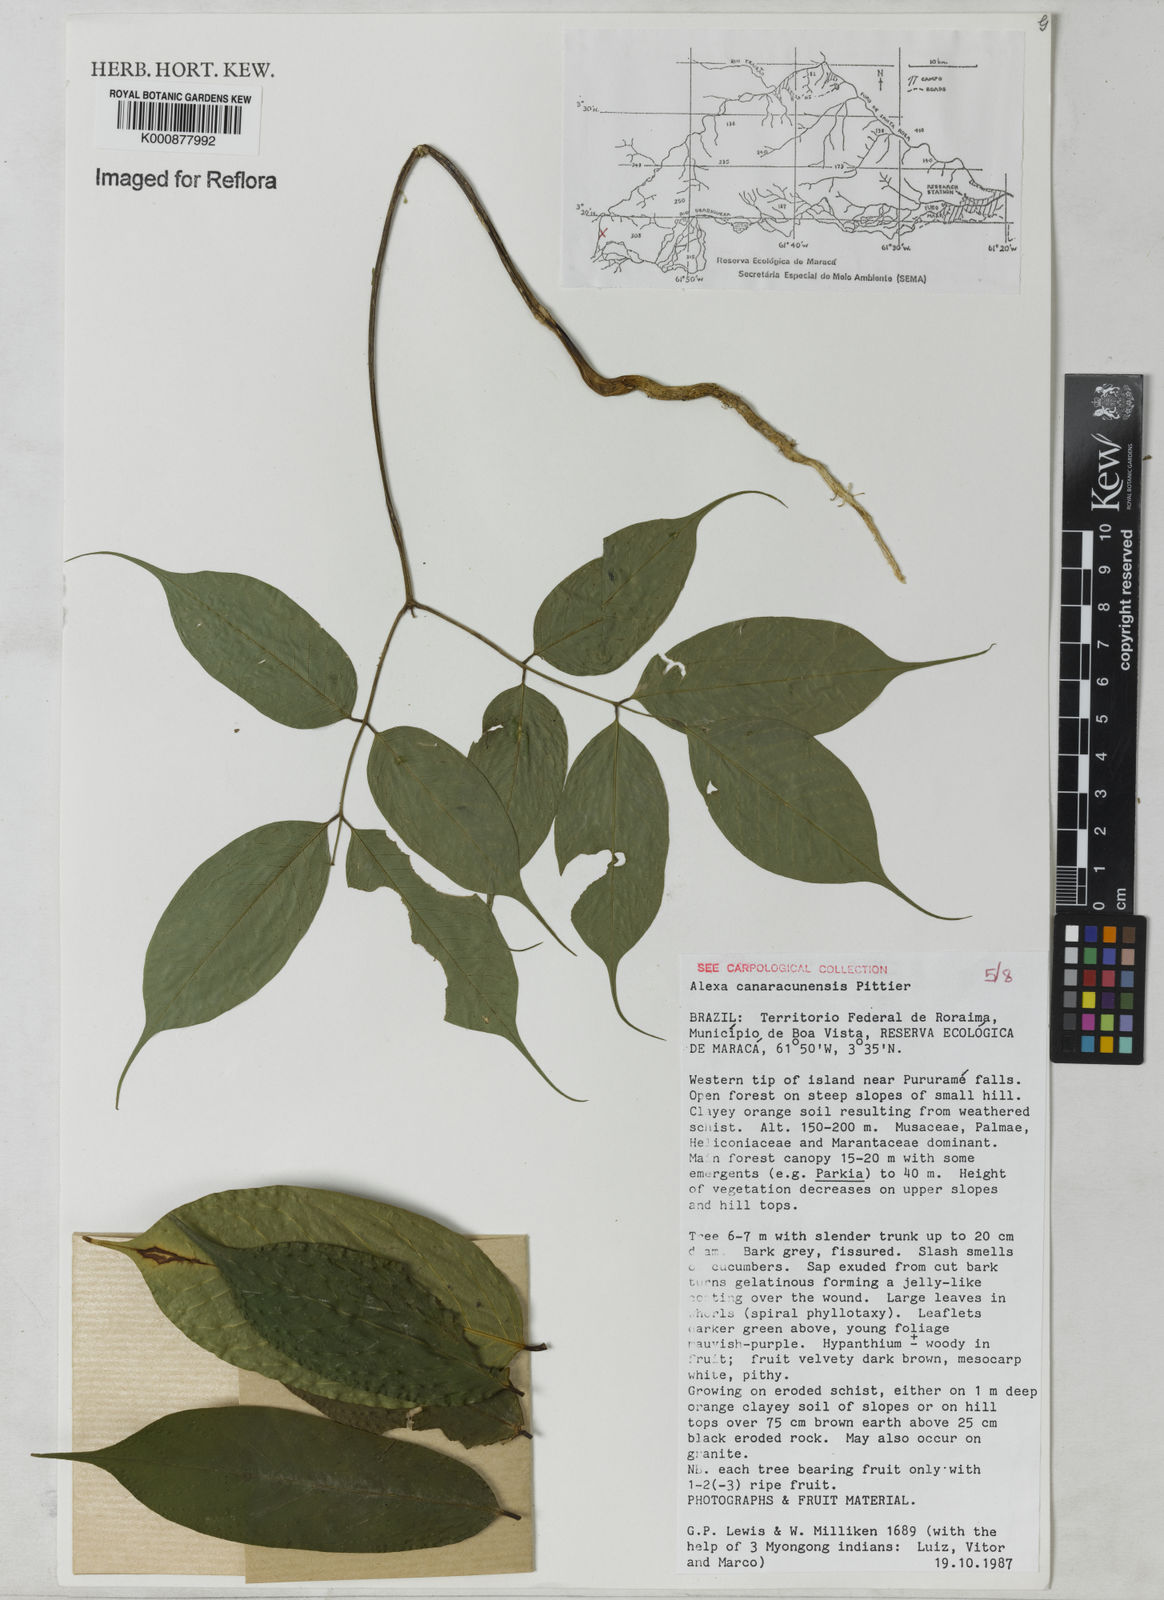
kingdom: Plantae
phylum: Tracheophyta
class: Magnoliopsida
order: Fabales
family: Fabaceae
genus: Alexa
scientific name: Alexa canaracunensis
